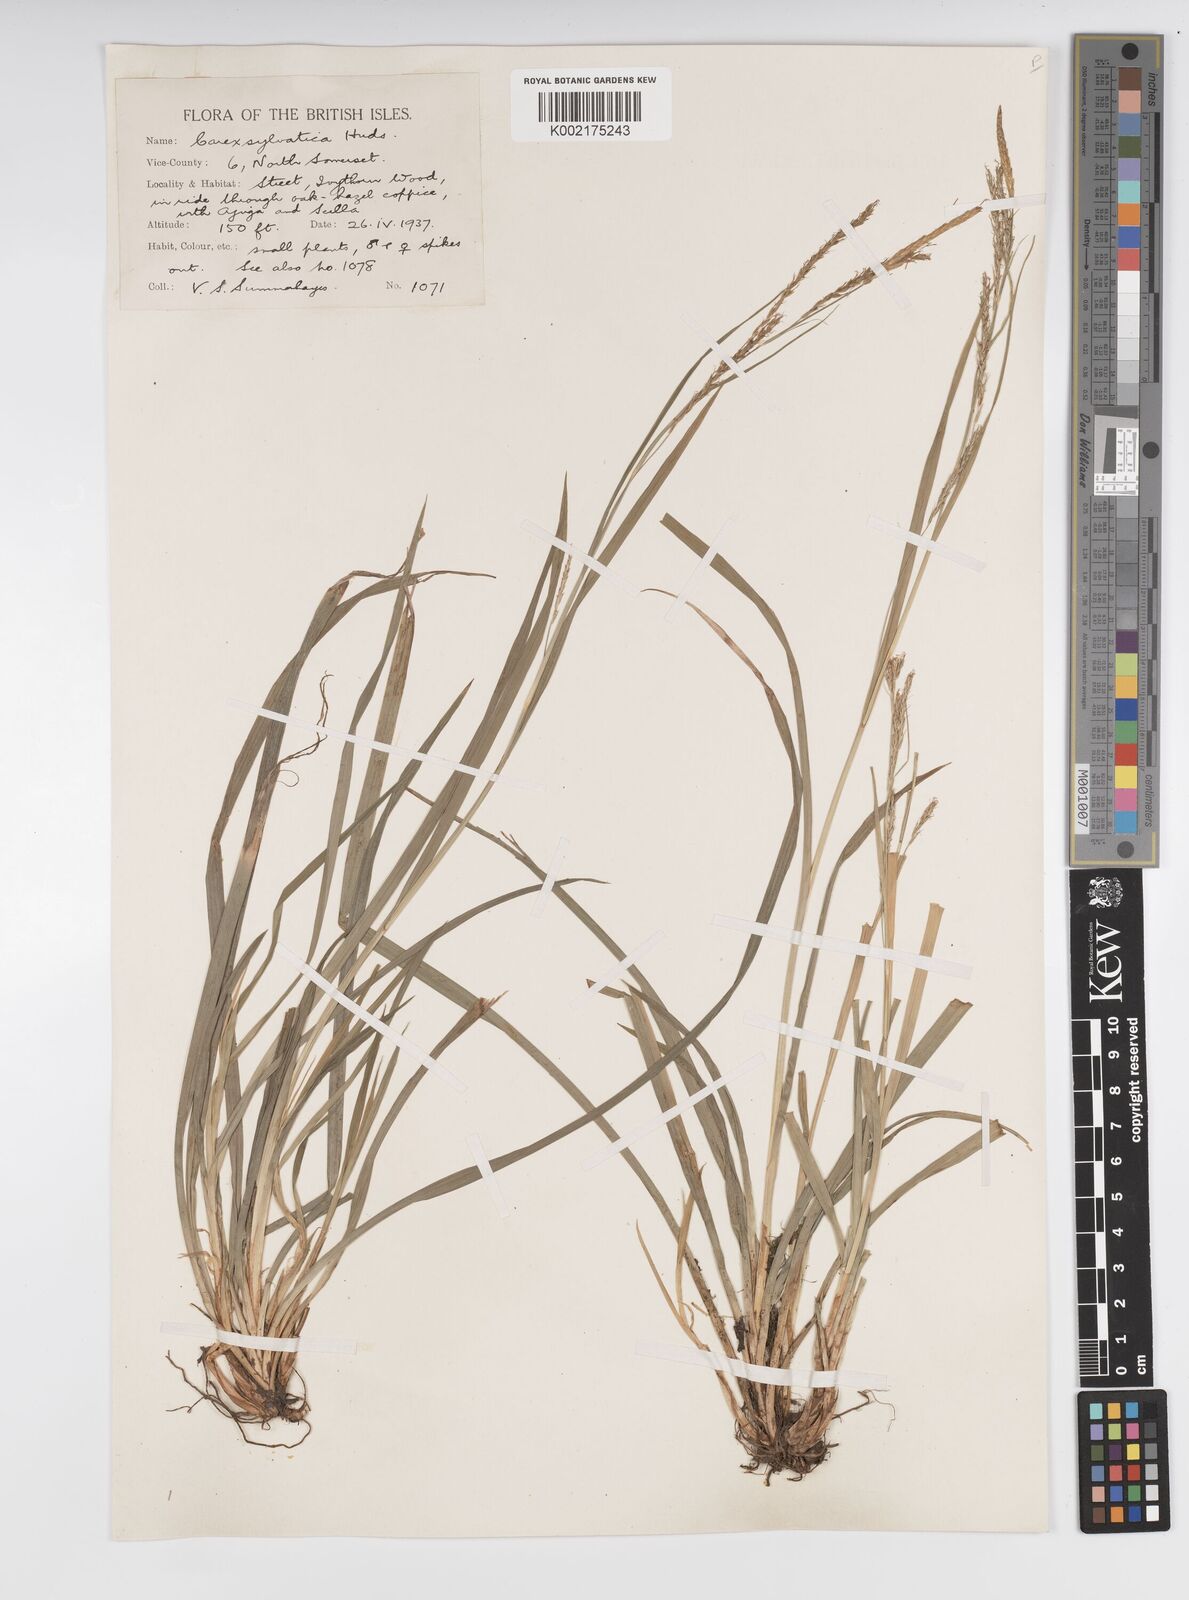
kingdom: Plantae
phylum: Tracheophyta
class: Liliopsida
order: Poales
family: Cyperaceae
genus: Carex
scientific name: Carex sylvatica
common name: Wood-sedge
